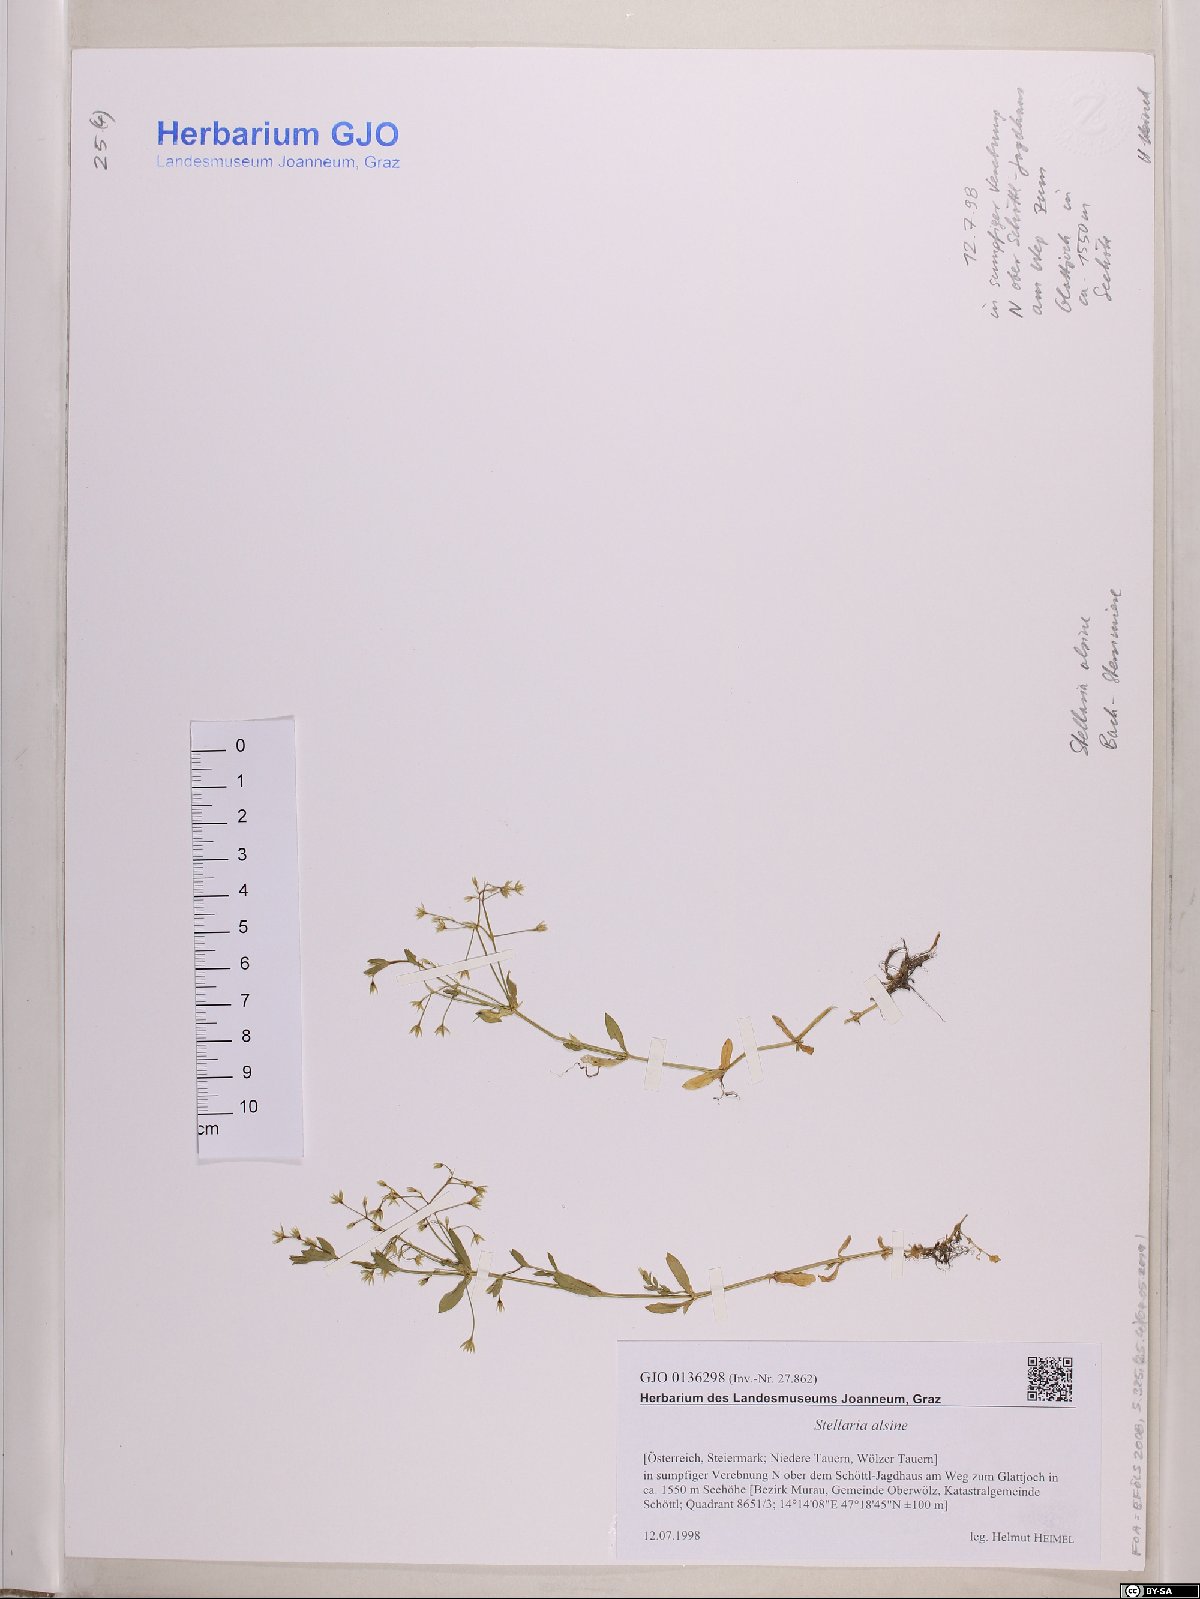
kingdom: Plantae
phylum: Tracheophyta
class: Magnoliopsida
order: Caryophyllales
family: Caryophyllaceae
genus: Stellaria
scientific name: Stellaria alsine
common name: Bog stitchwort
